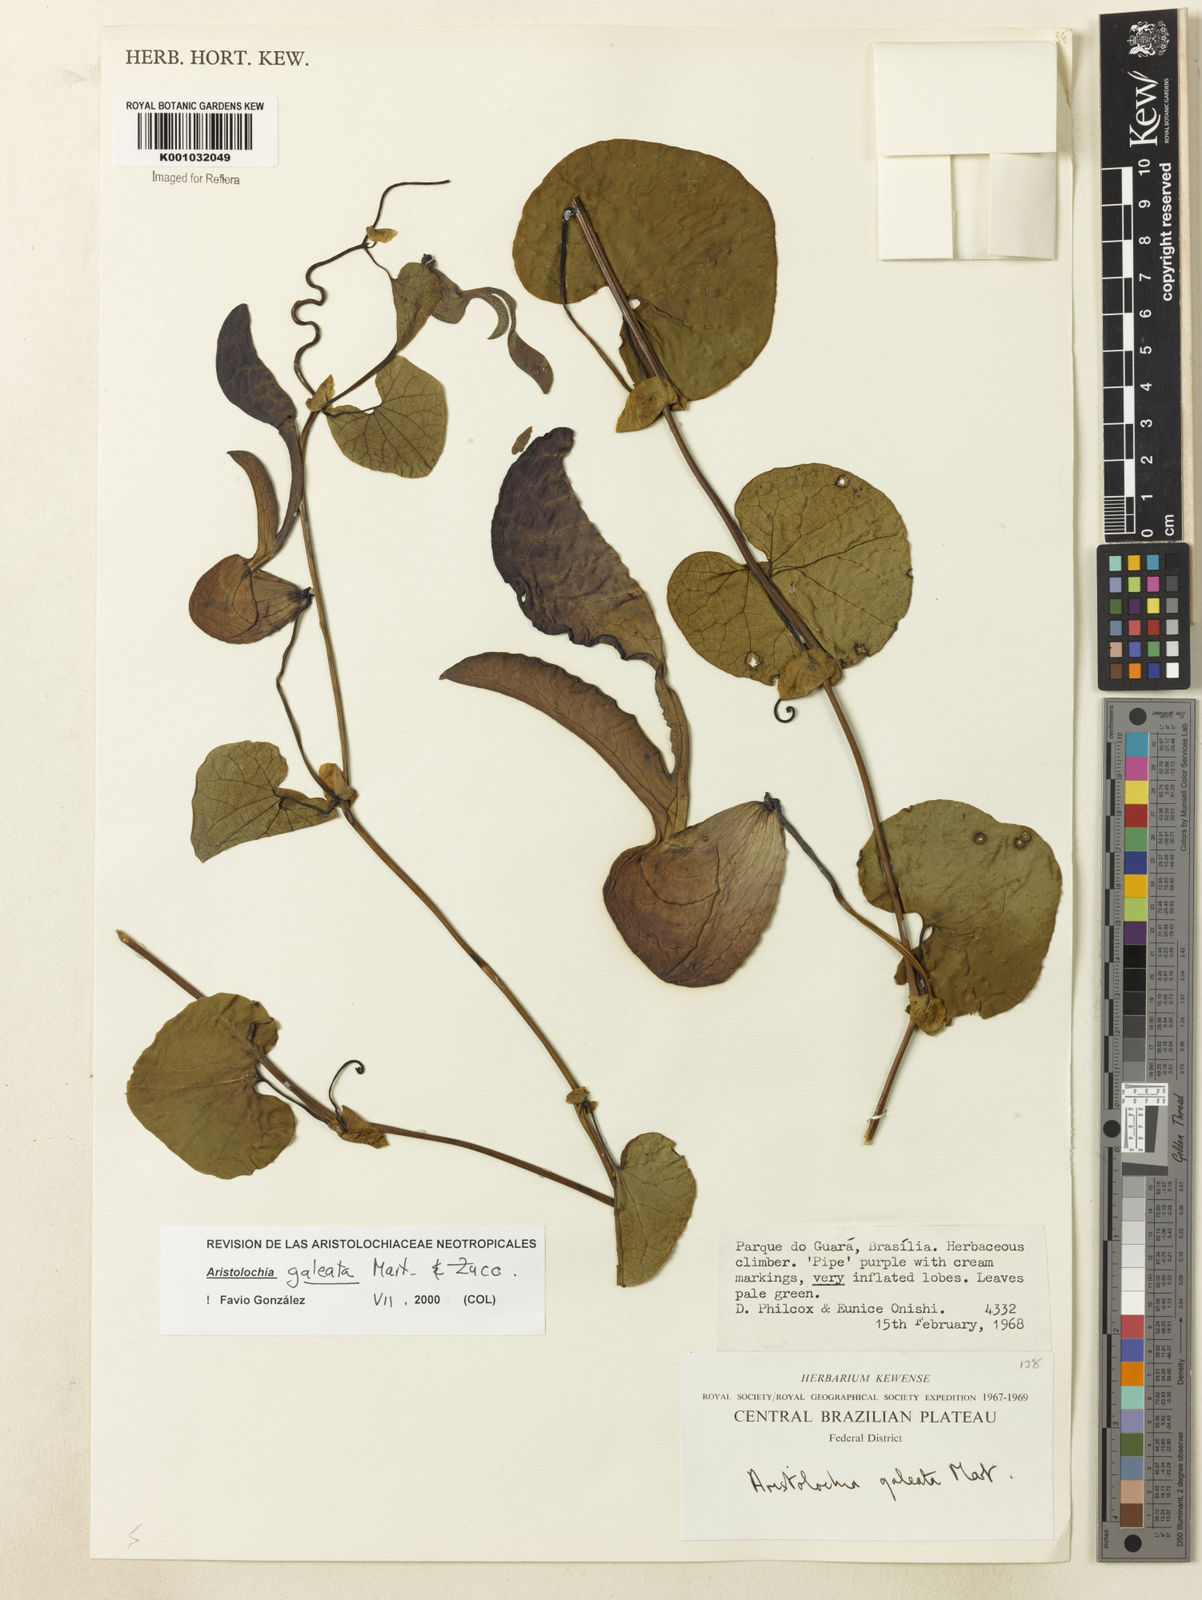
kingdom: Plantae
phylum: Tracheophyta
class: Magnoliopsida
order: Piperales
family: Aristolochiaceae
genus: Aristolochia
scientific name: Aristolochia
